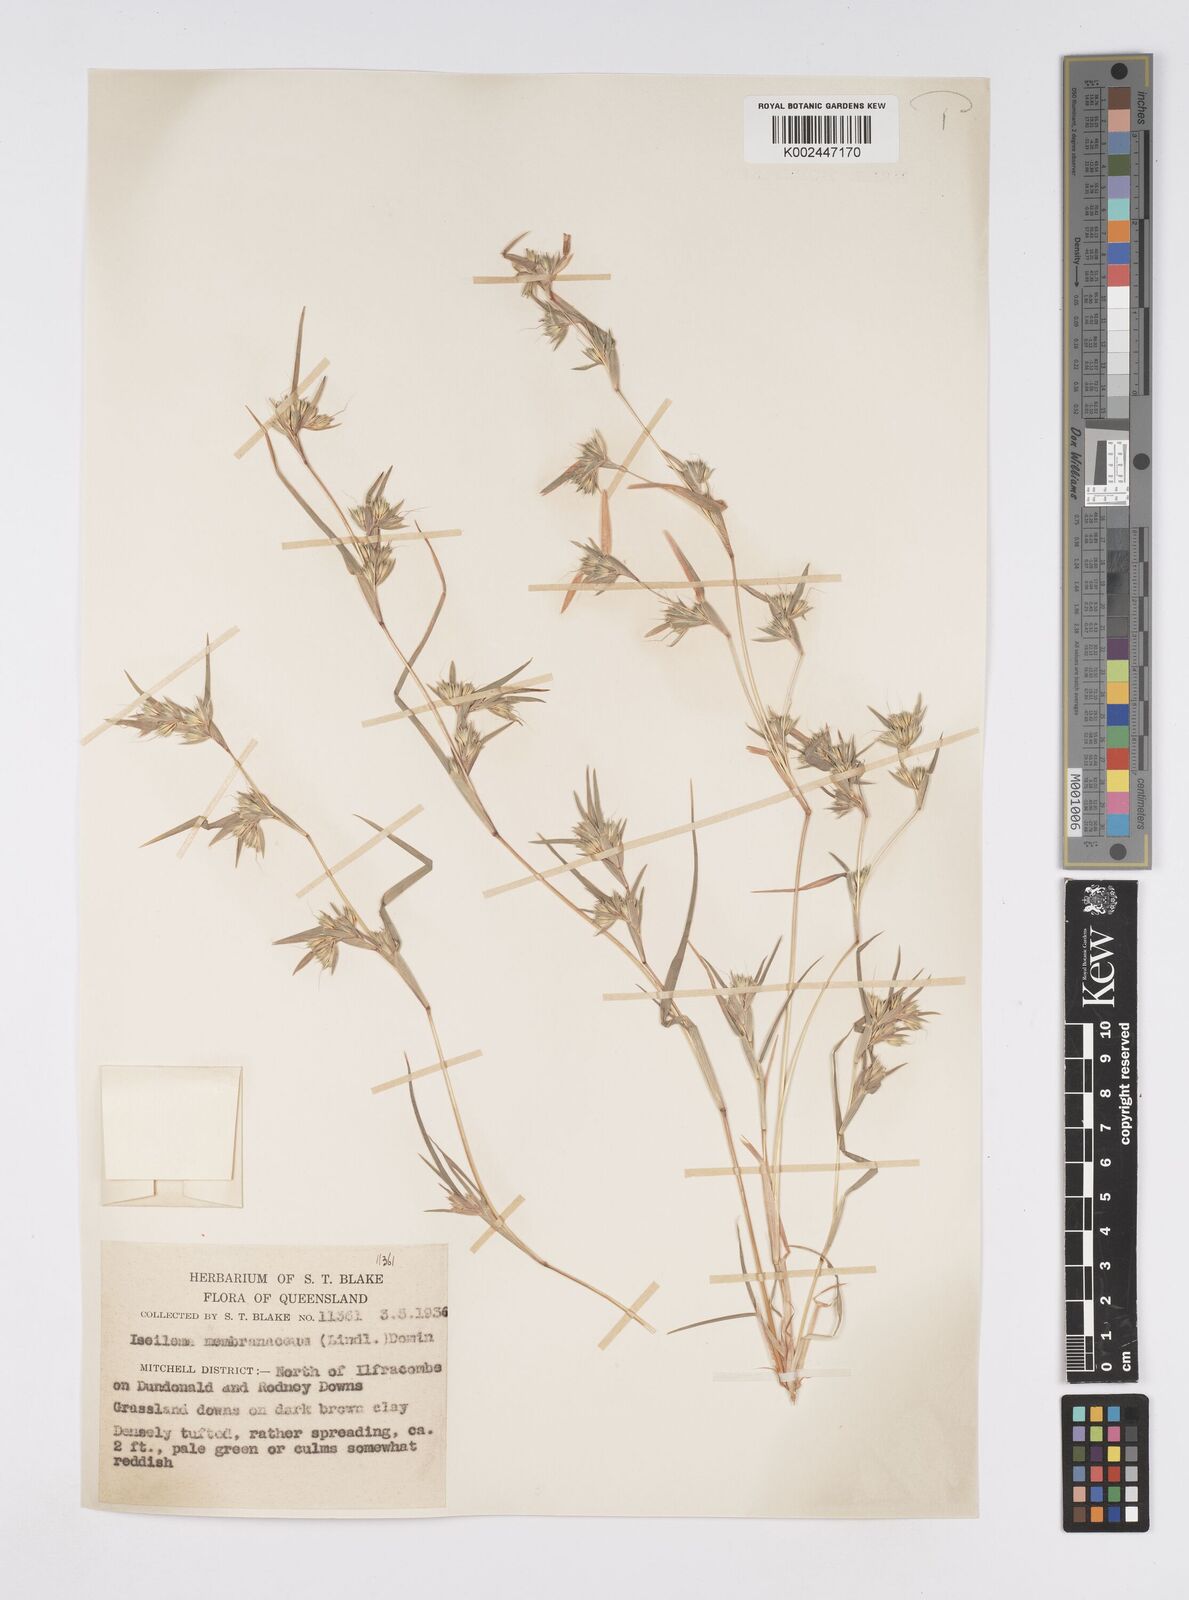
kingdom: Plantae
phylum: Tracheophyta
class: Liliopsida
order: Poales
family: Poaceae
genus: Iseilema
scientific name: Iseilema membranaceum
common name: Small flinders grass
